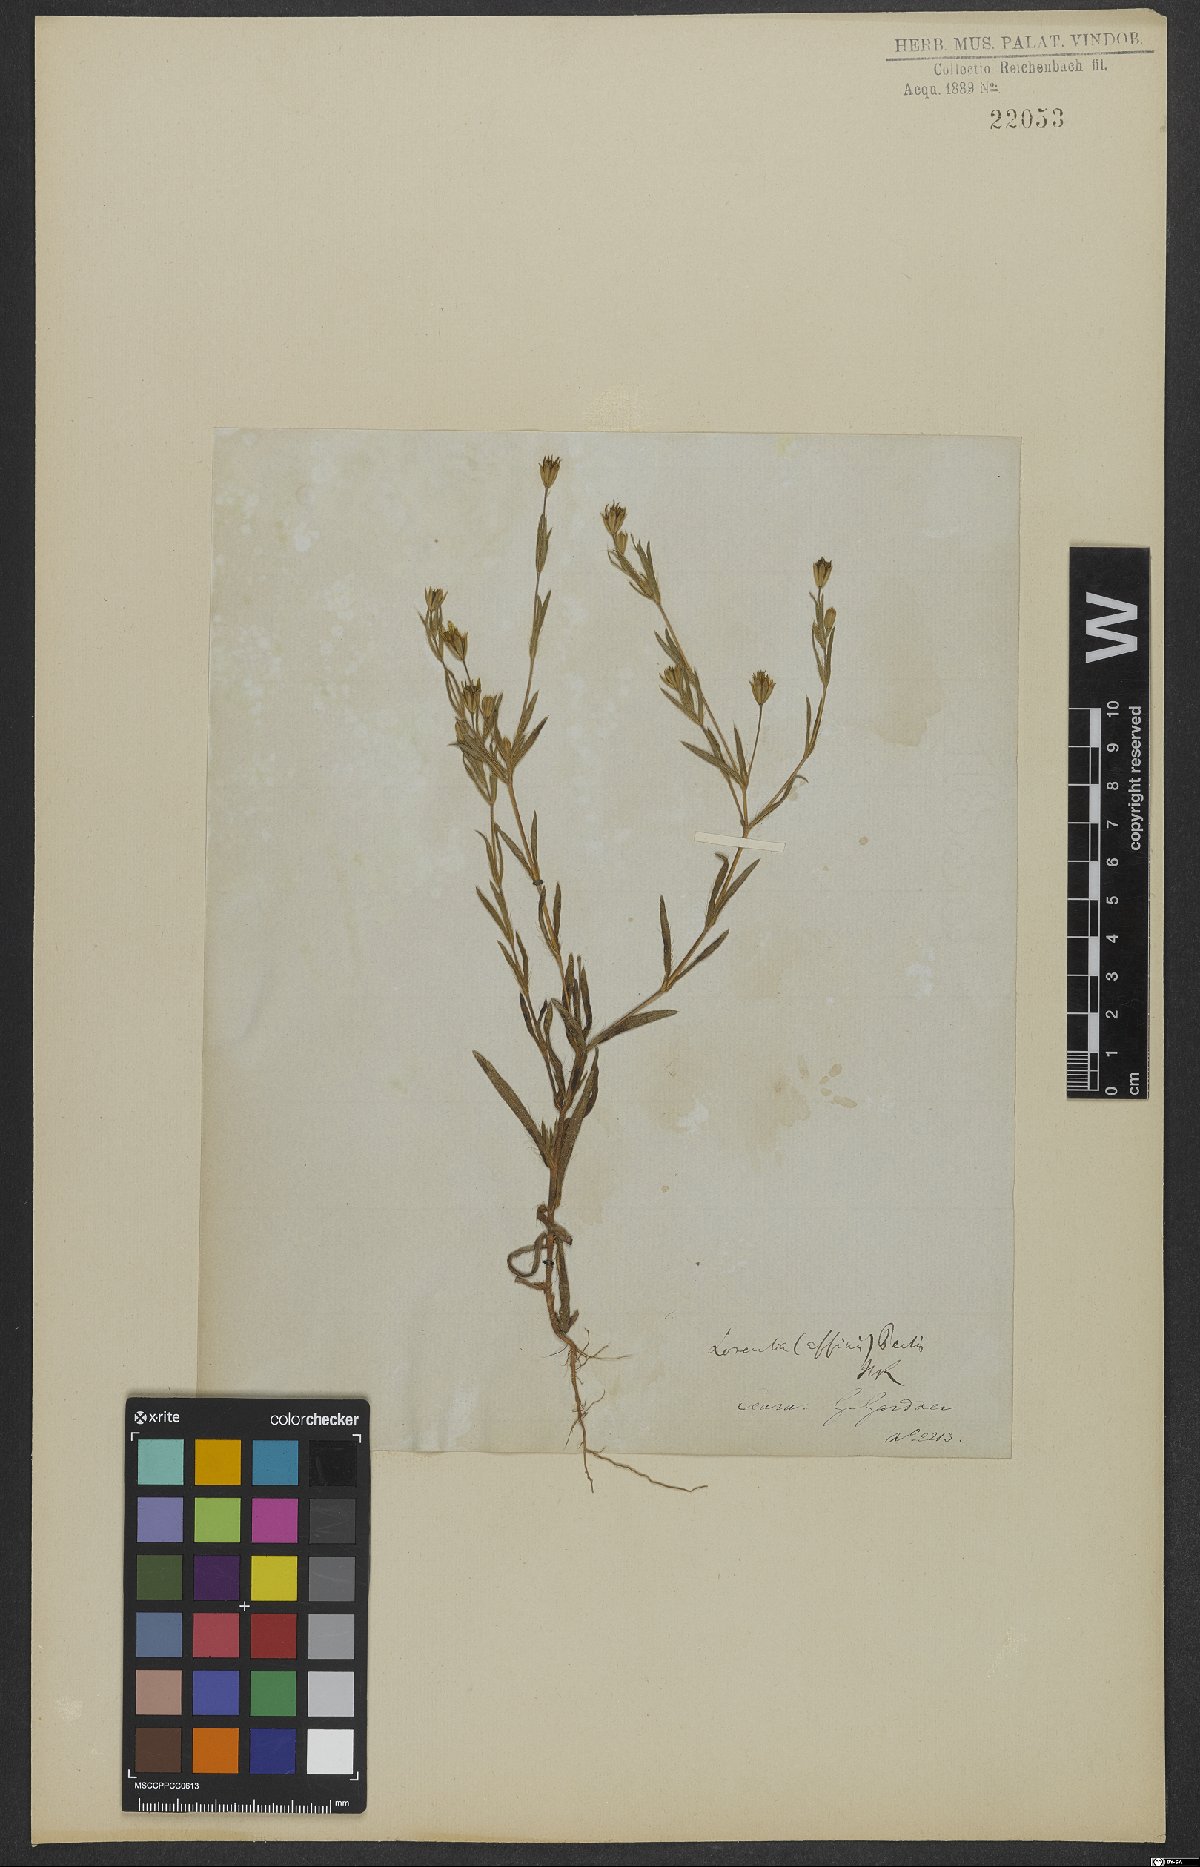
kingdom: Plantae
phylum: Tracheophyta
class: Magnoliopsida
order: Asterales
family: Asteraceae
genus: Pectis
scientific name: Pectis oligocephala
